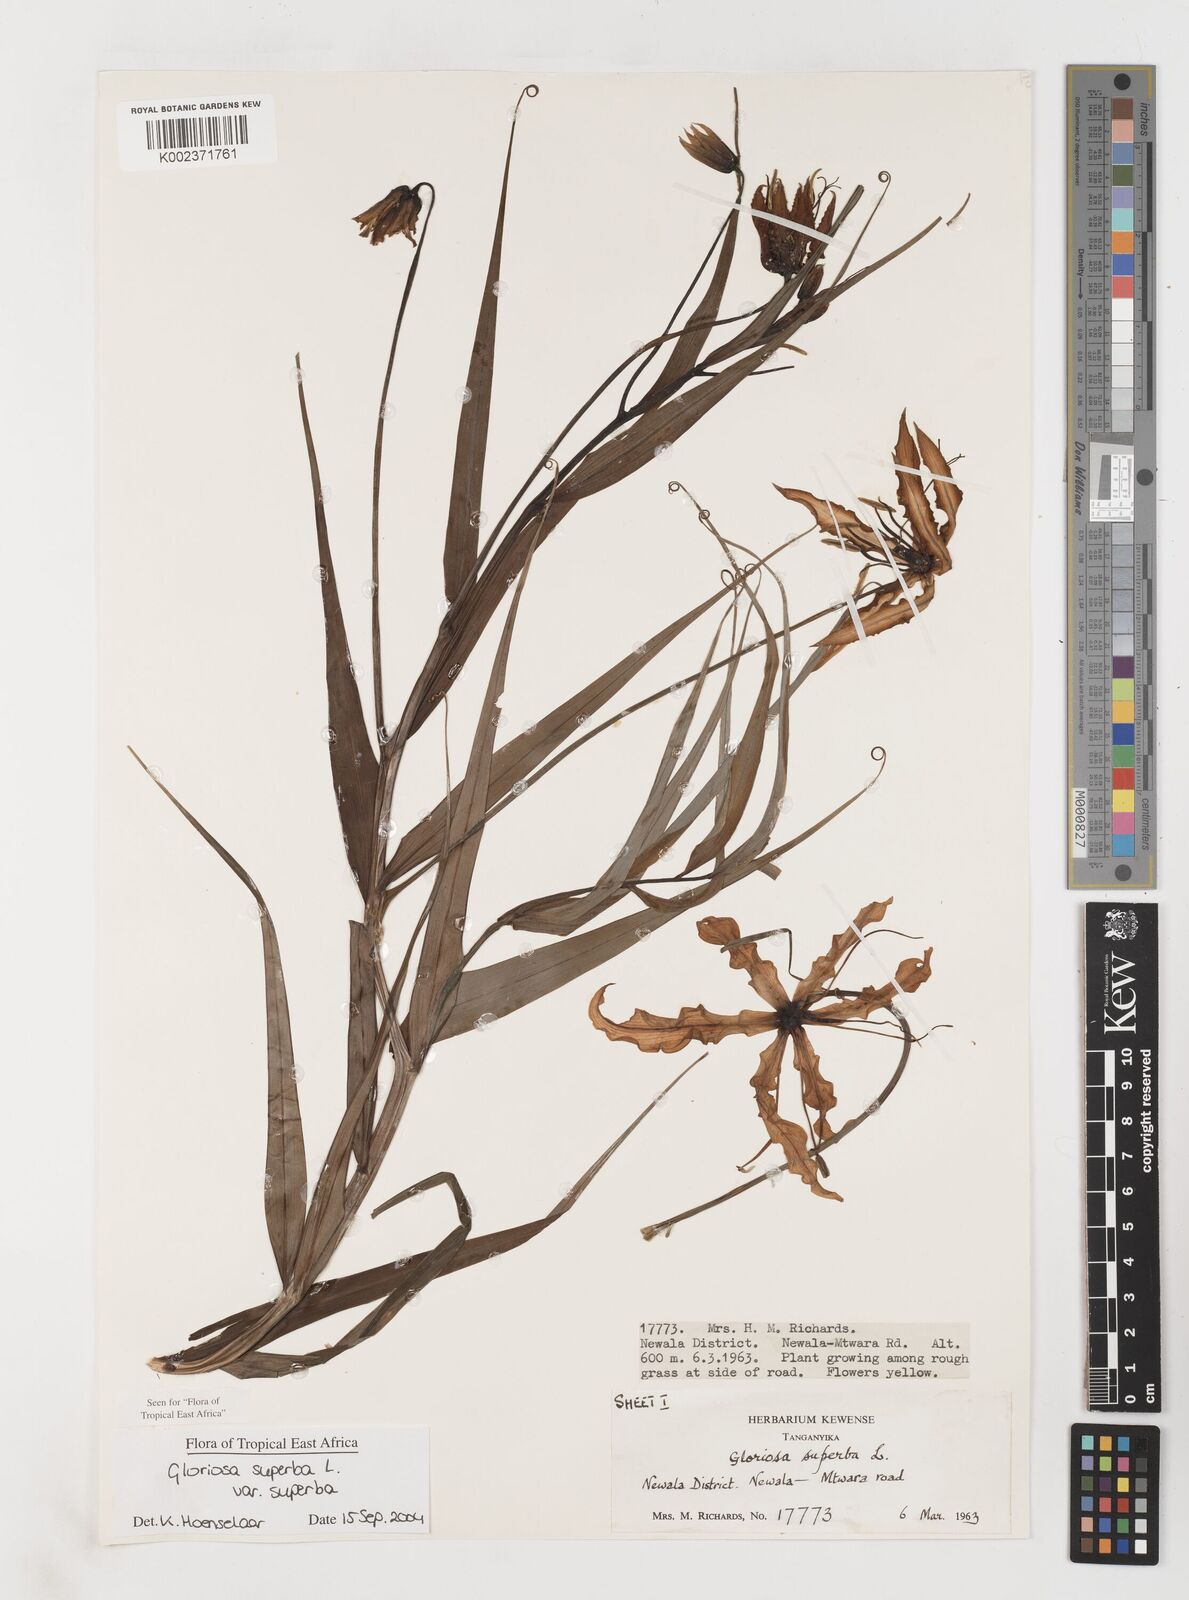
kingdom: Plantae
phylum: Tracheophyta
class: Liliopsida
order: Liliales
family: Colchicaceae
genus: Gloriosa
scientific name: Gloriosa superba
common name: Flame lily
